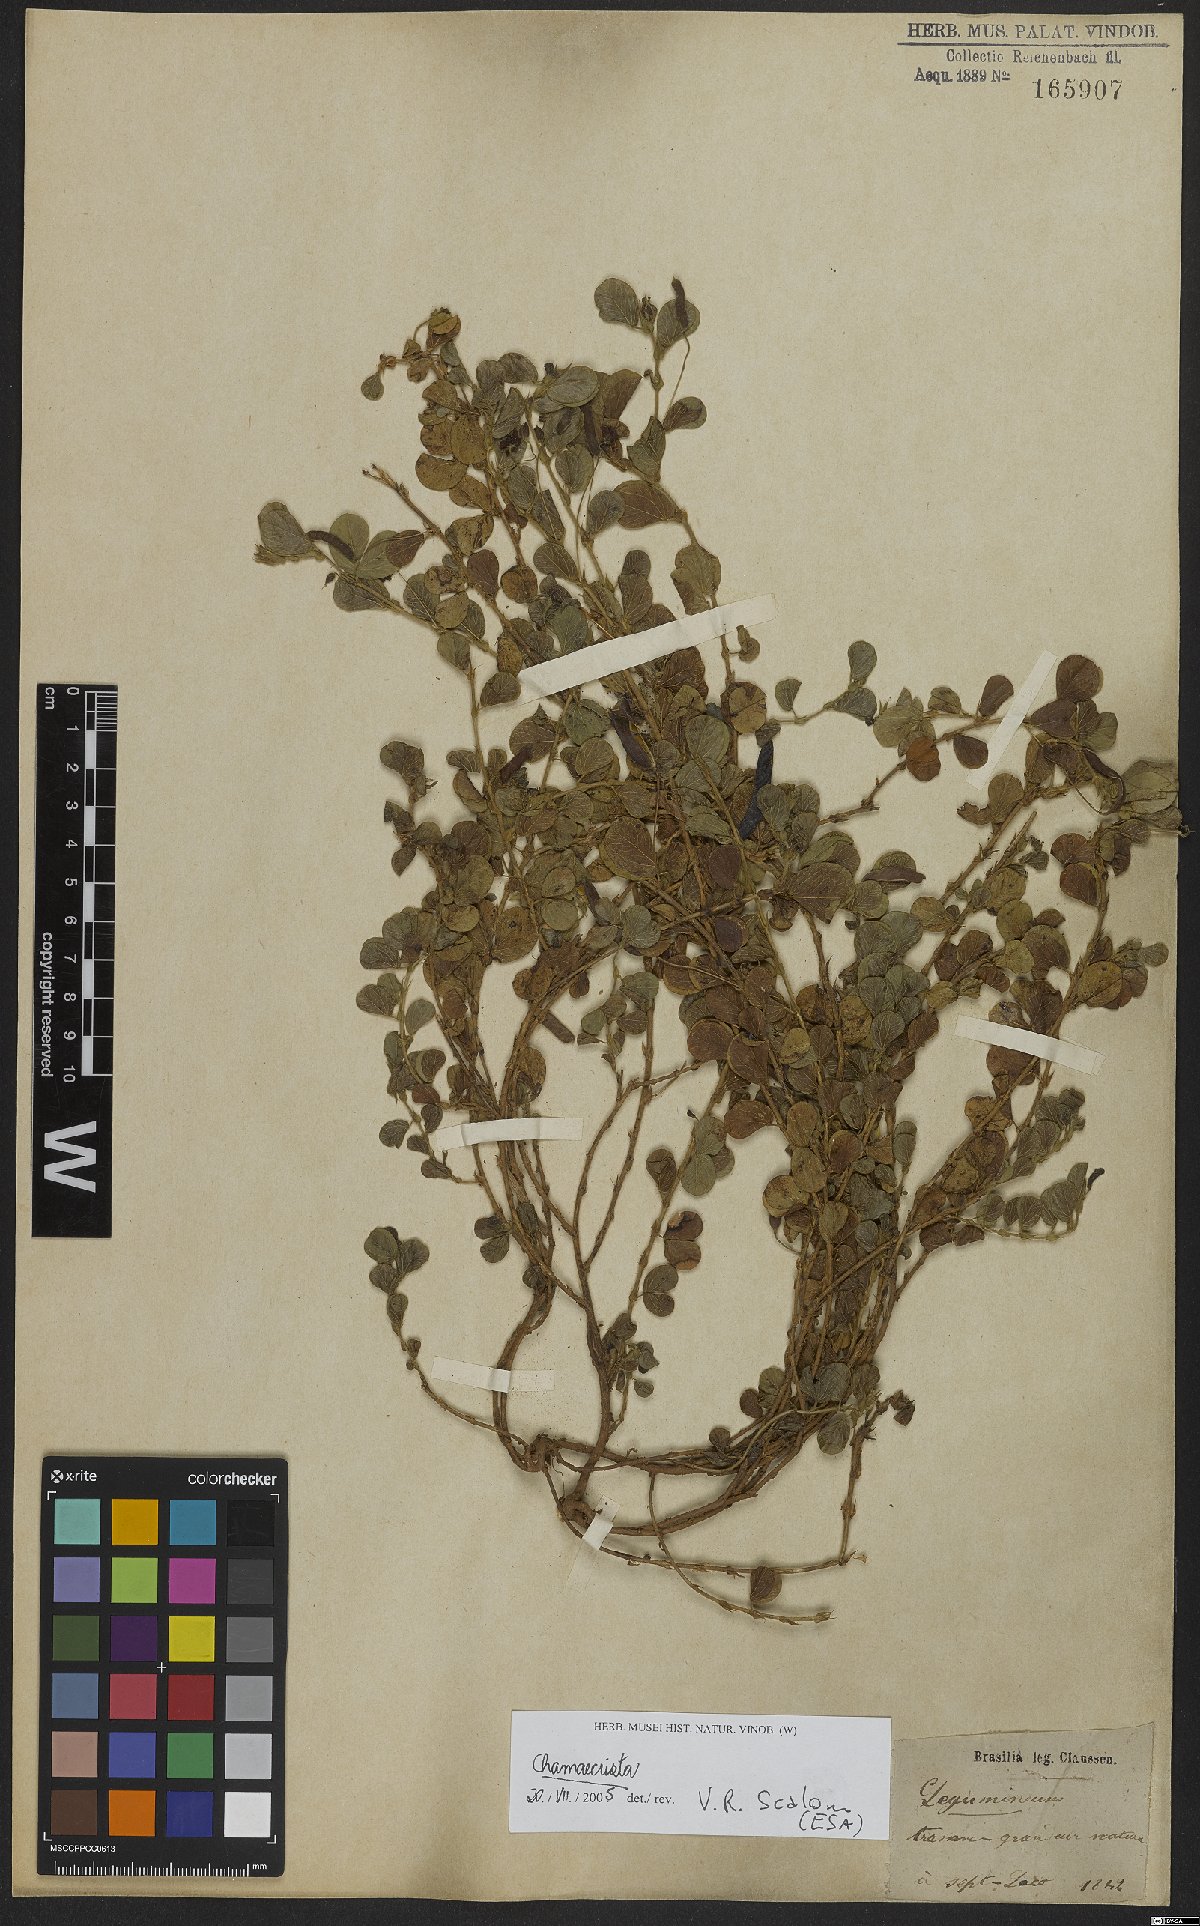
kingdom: Plantae
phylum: Tracheophyta
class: Magnoliopsida
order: Fabales
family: Fabaceae
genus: Chamaecrista
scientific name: Chamaecrista
